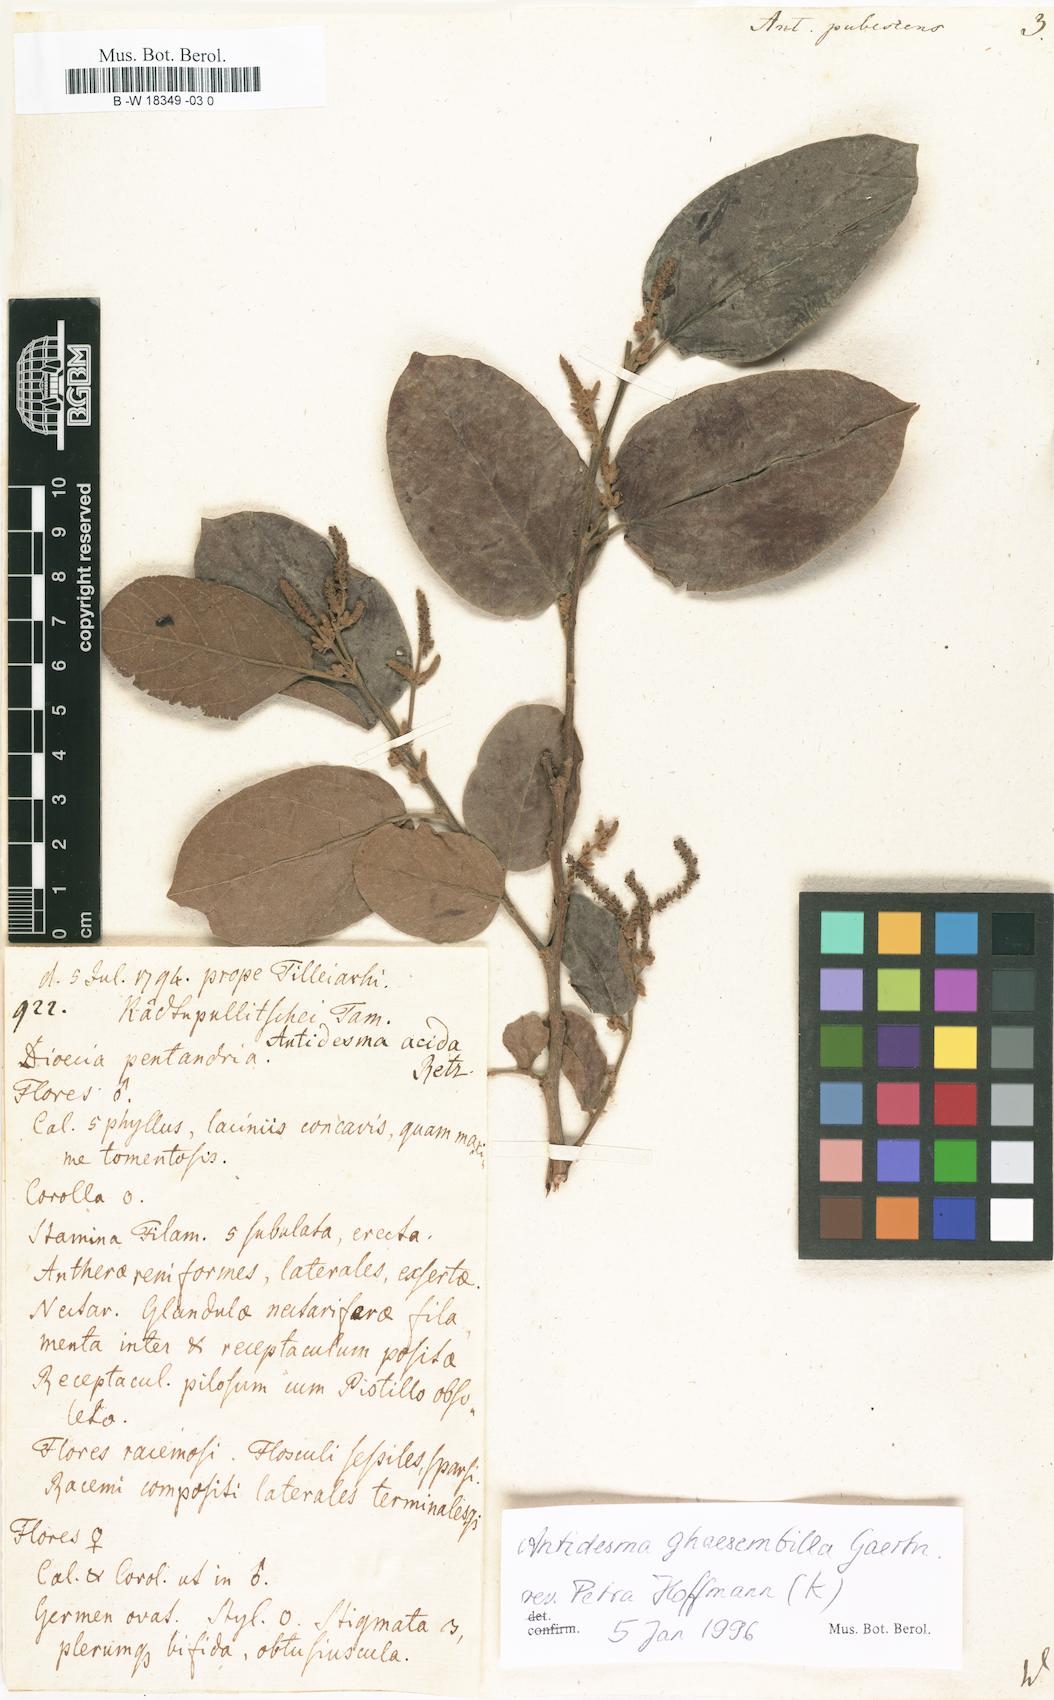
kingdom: Plantae
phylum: Tracheophyta
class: Magnoliopsida
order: Malpighiales
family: Phyllanthaceae
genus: Antidesma
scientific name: Antidesma
